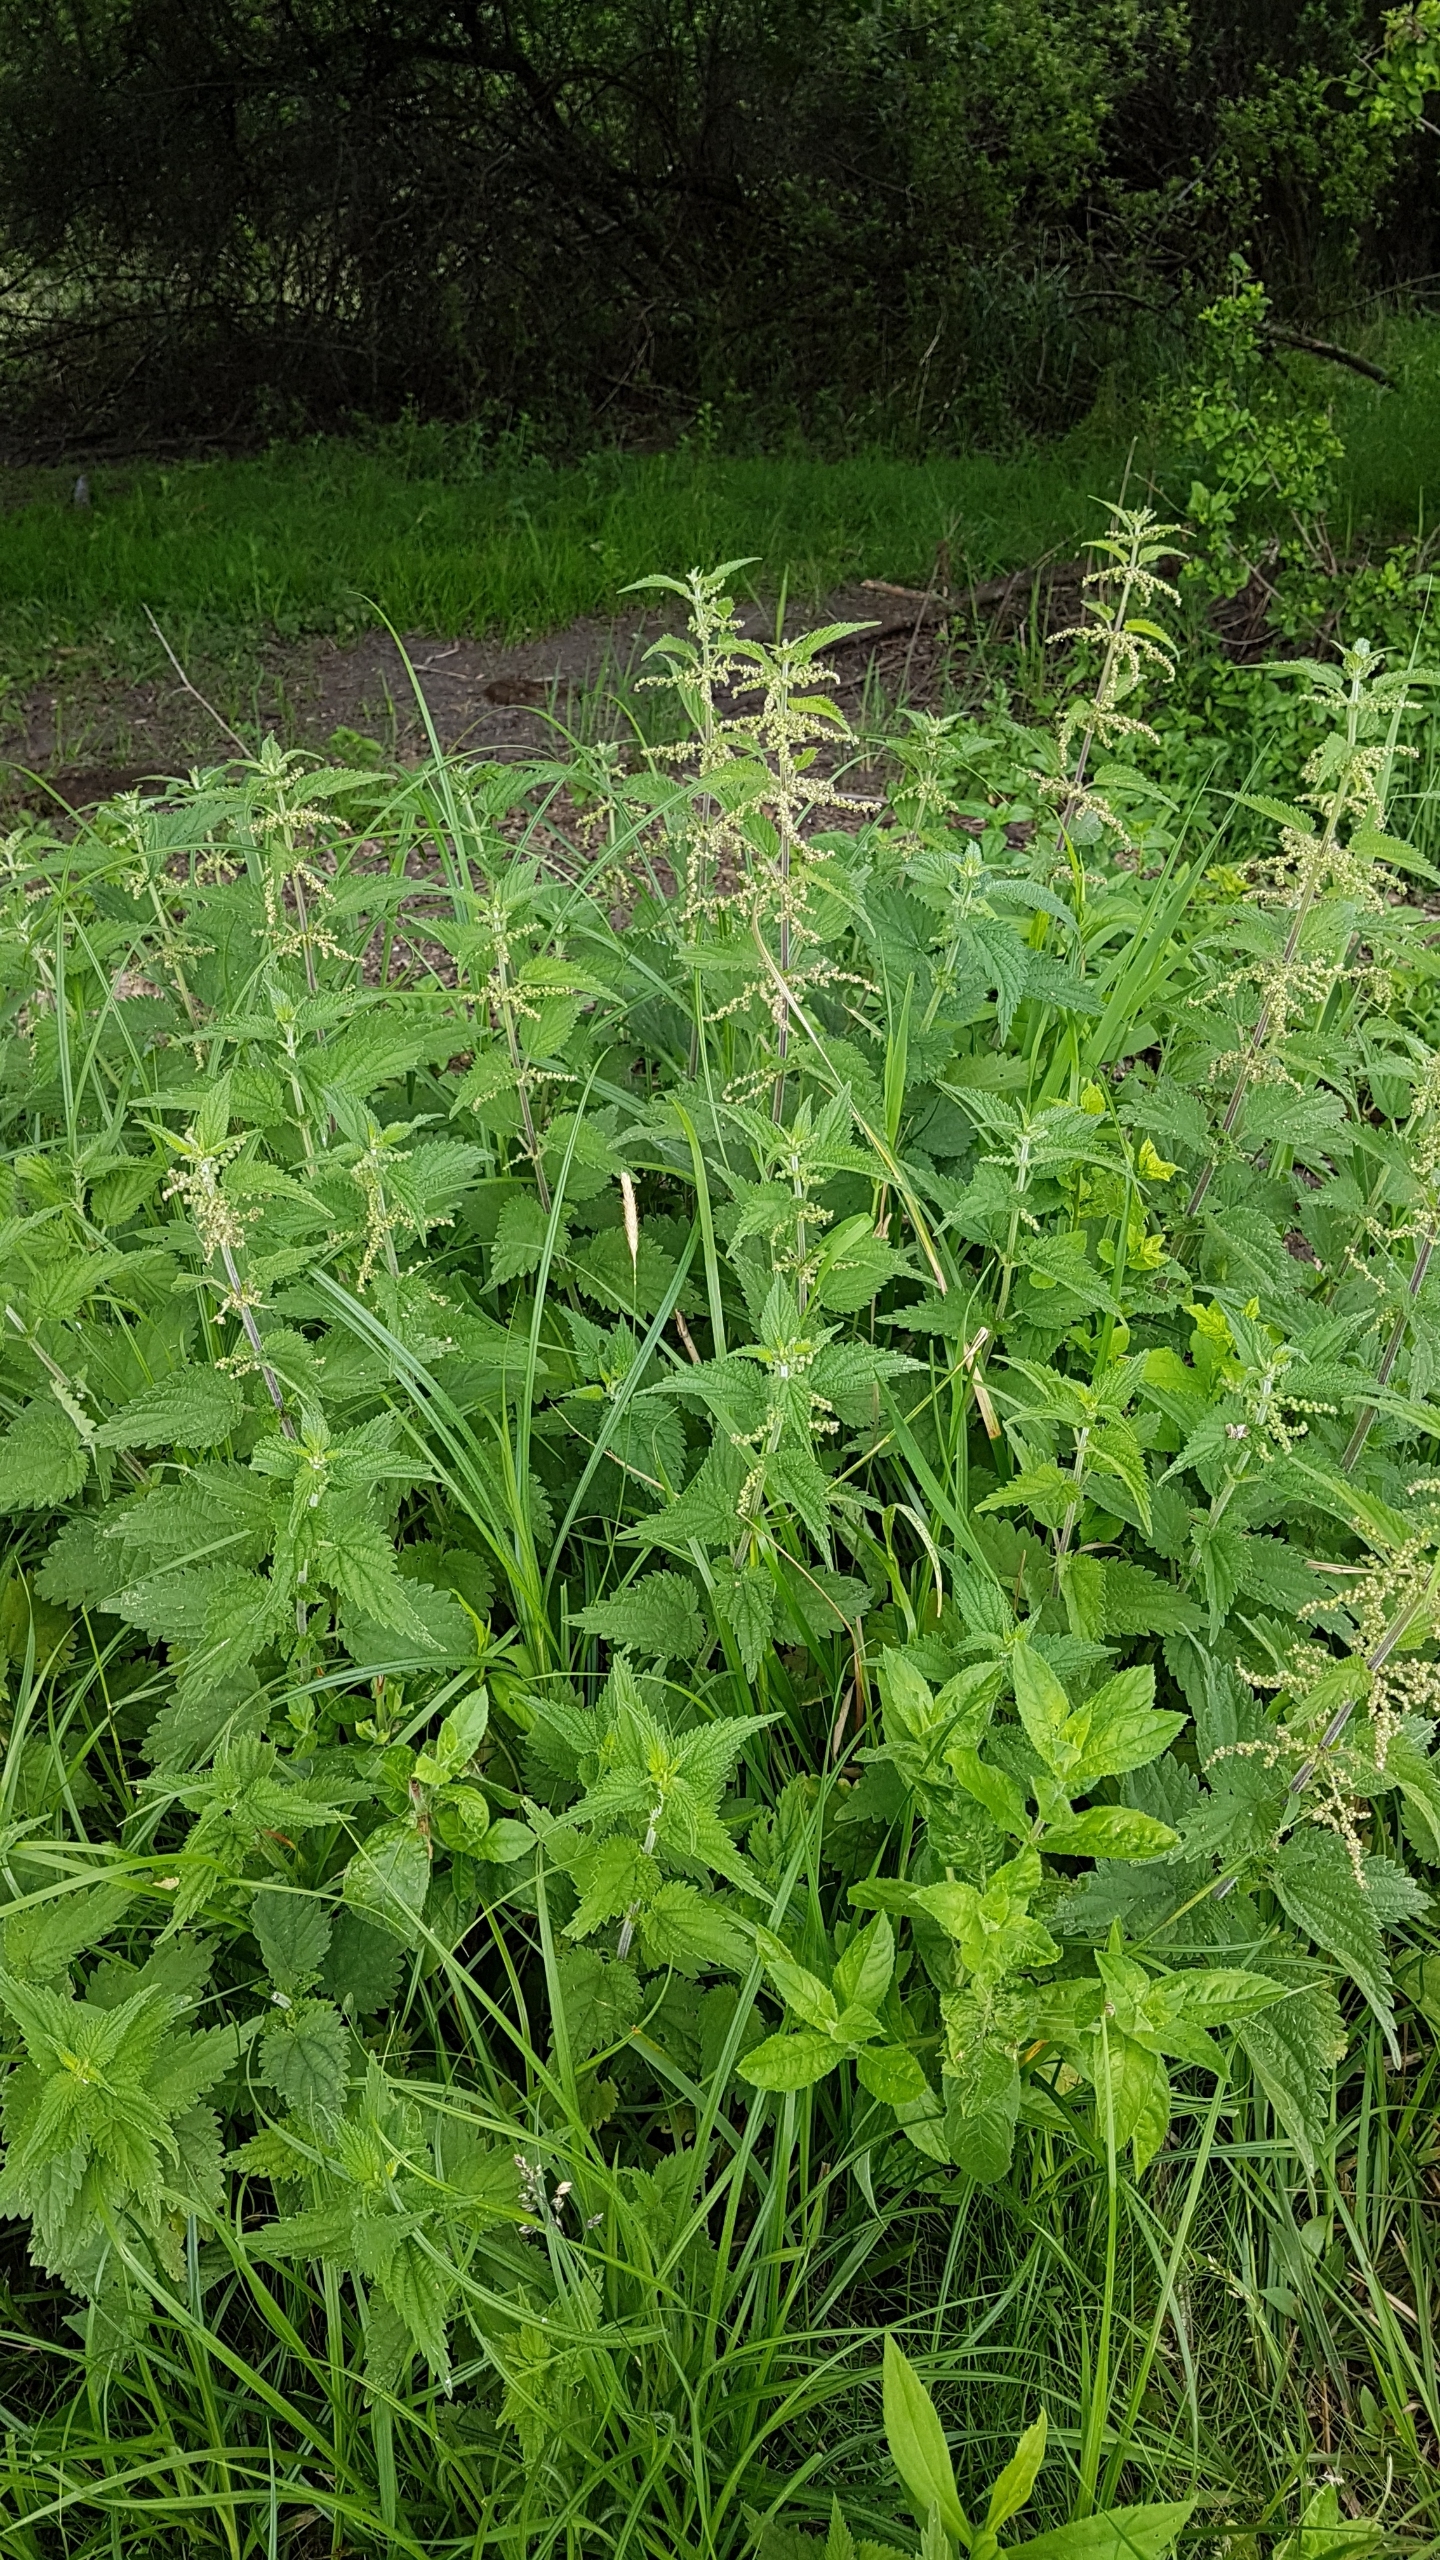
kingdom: Plantae
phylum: Tracheophyta
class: Magnoliopsida
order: Rosales
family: Urticaceae
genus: Urtica
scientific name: Urtica dioica
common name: Stor nælde
